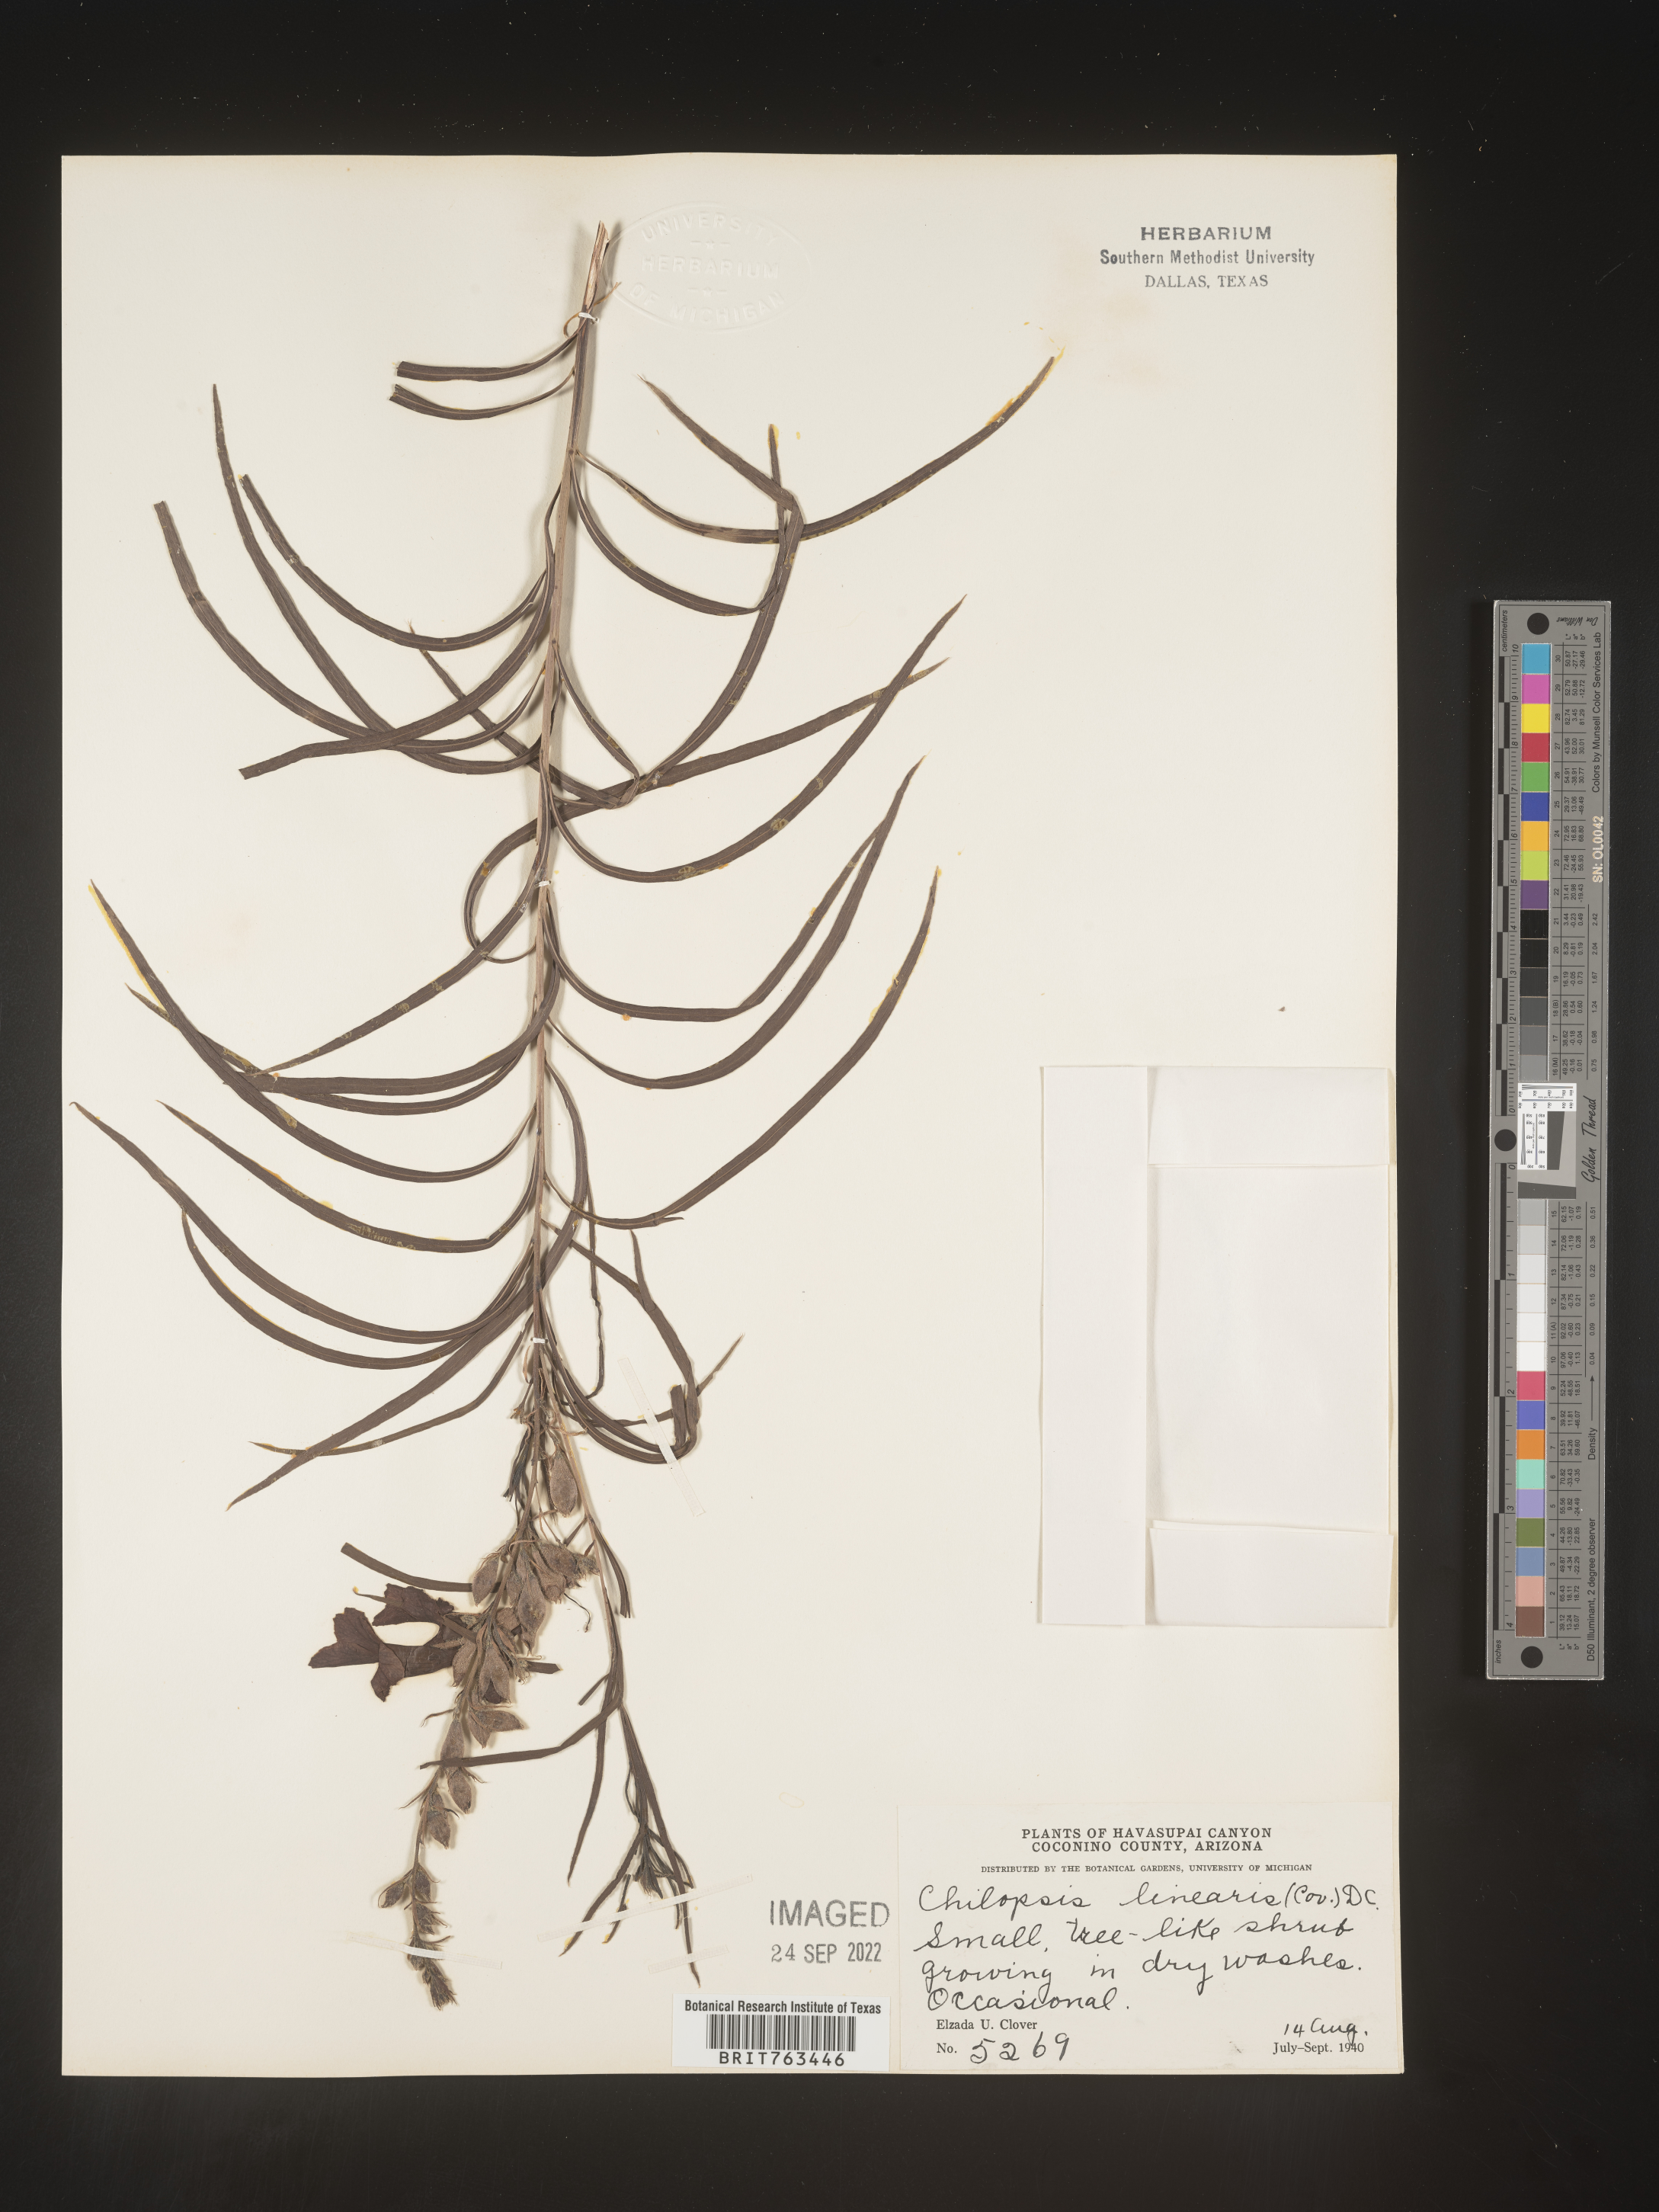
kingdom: Plantae
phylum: Tracheophyta
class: Magnoliopsida
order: Lamiales
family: Bignoniaceae
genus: Chilopsis
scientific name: Chilopsis linearis
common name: Desert-willow
